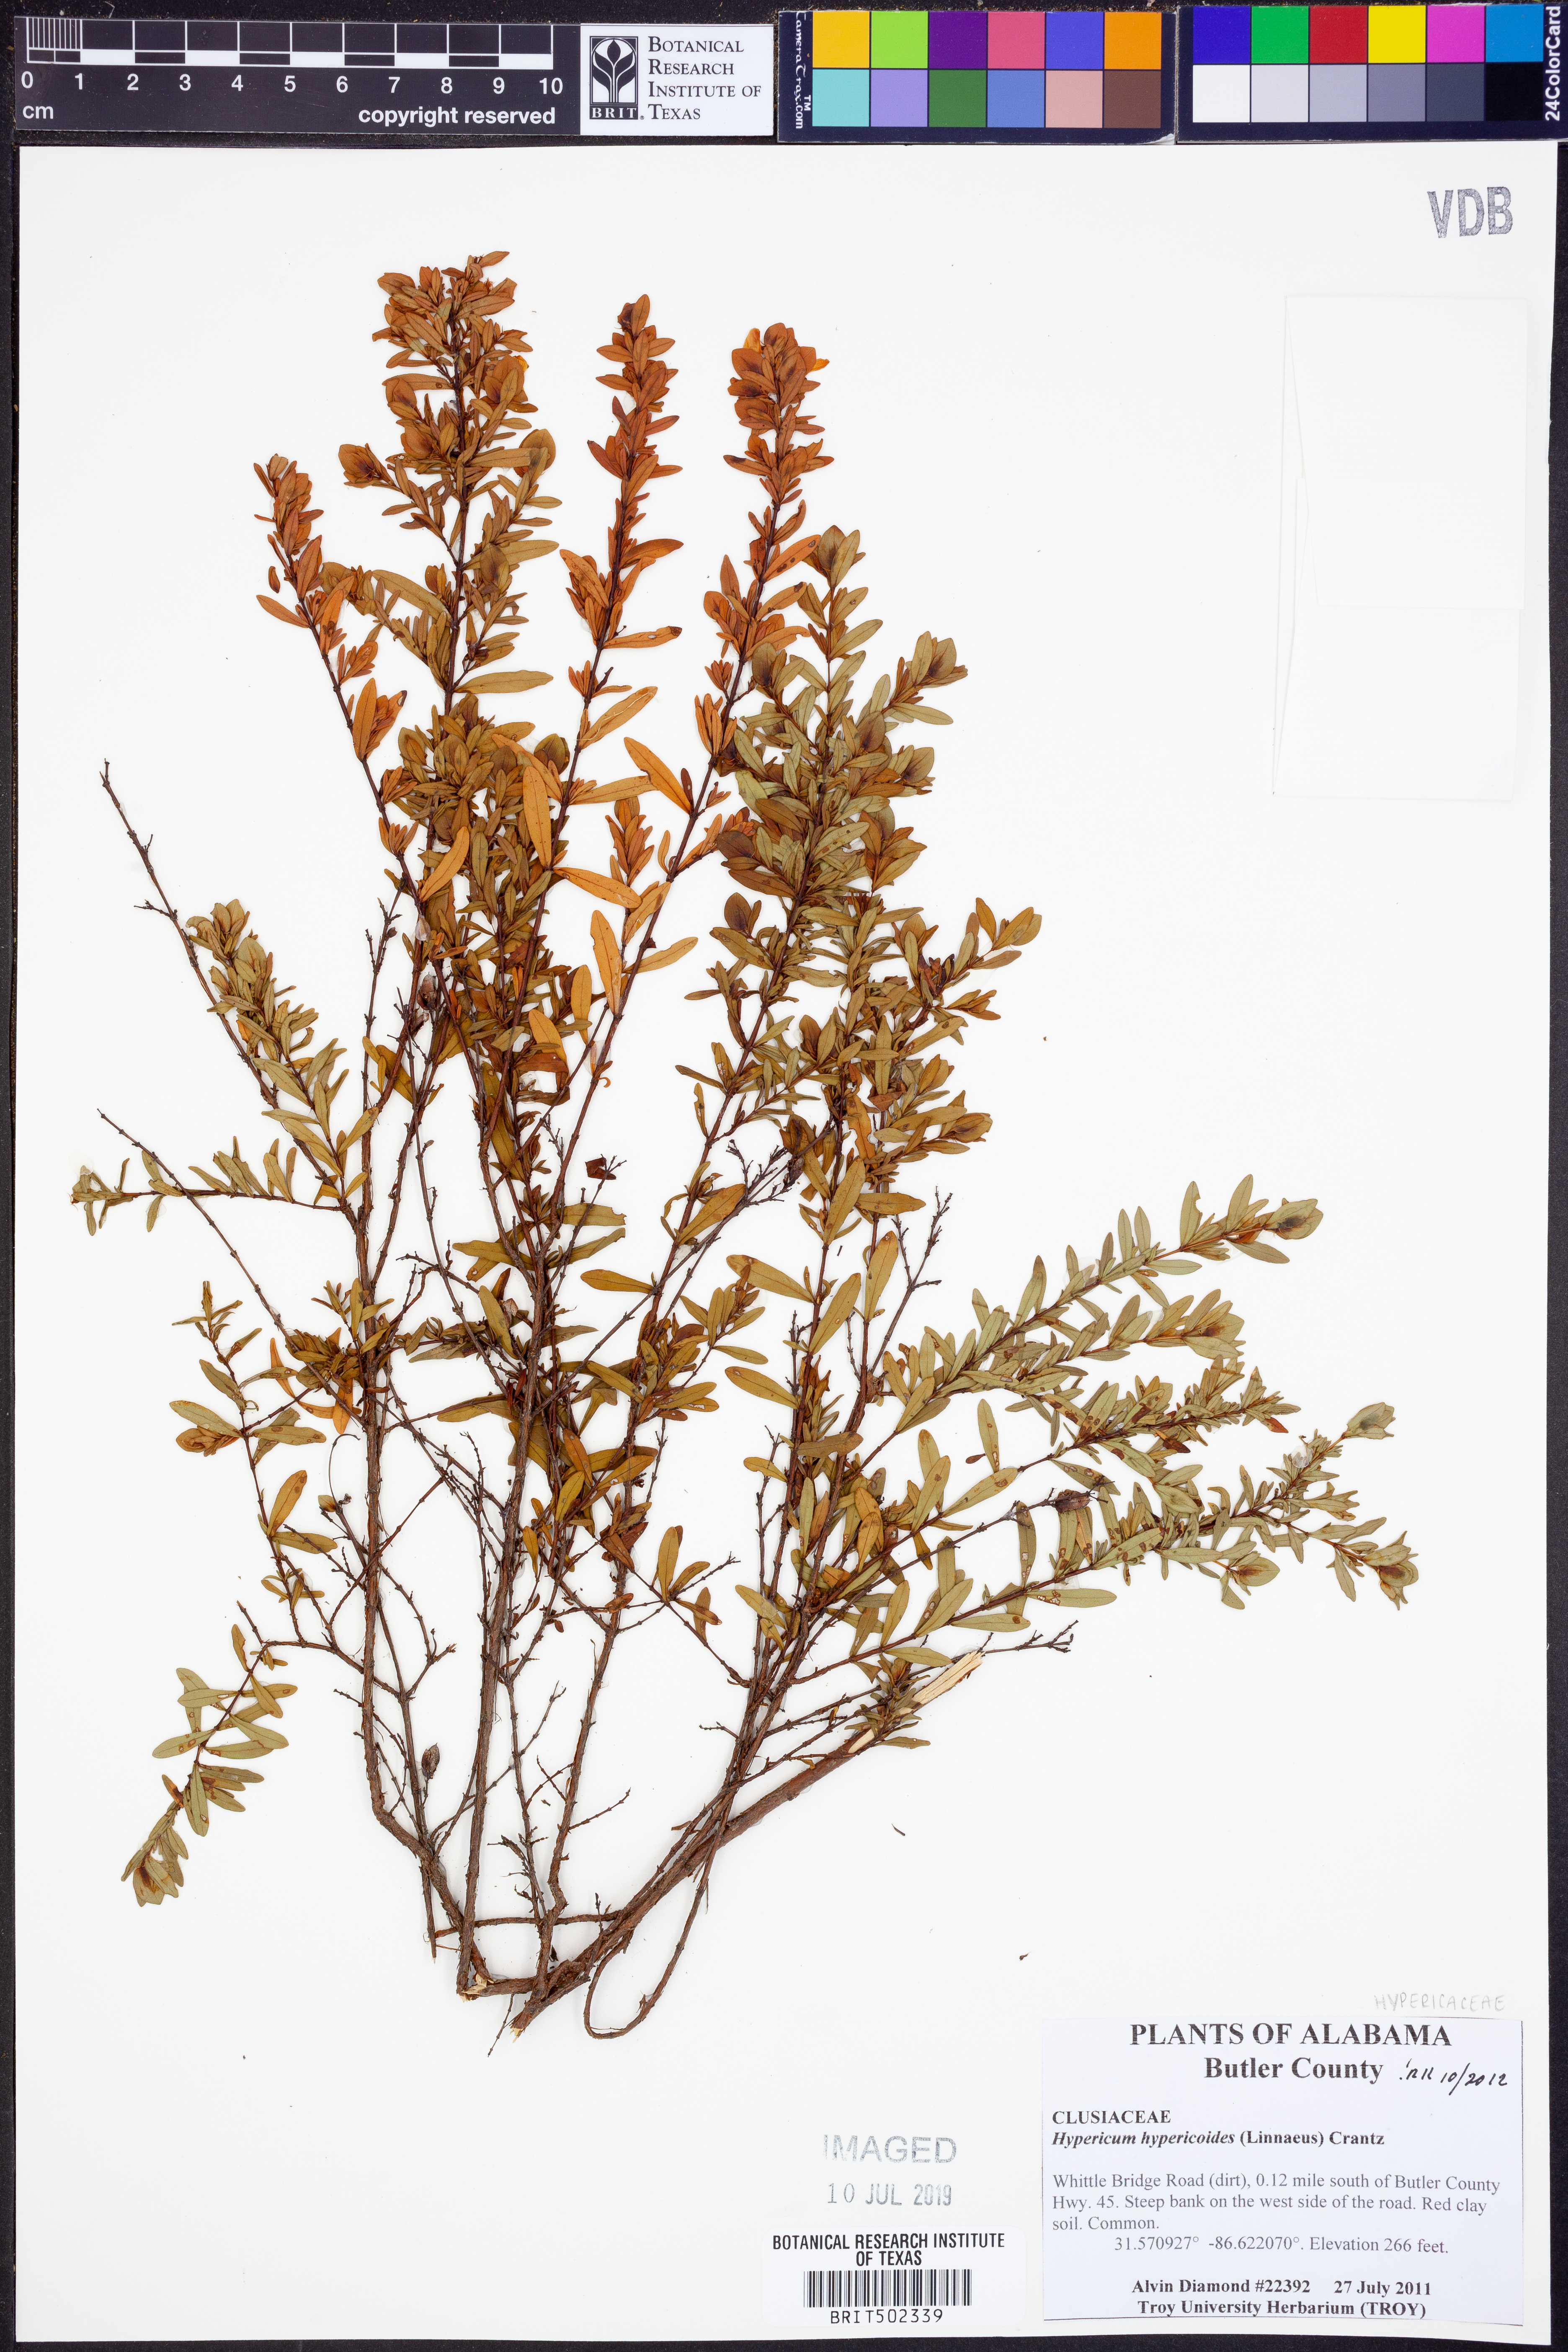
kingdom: Plantae
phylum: Tracheophyta
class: Magnoliopsida
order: Malpighiales
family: Hypericaceae
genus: Hypericum
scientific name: Hypericum hypericoides
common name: St. andrew's cross
